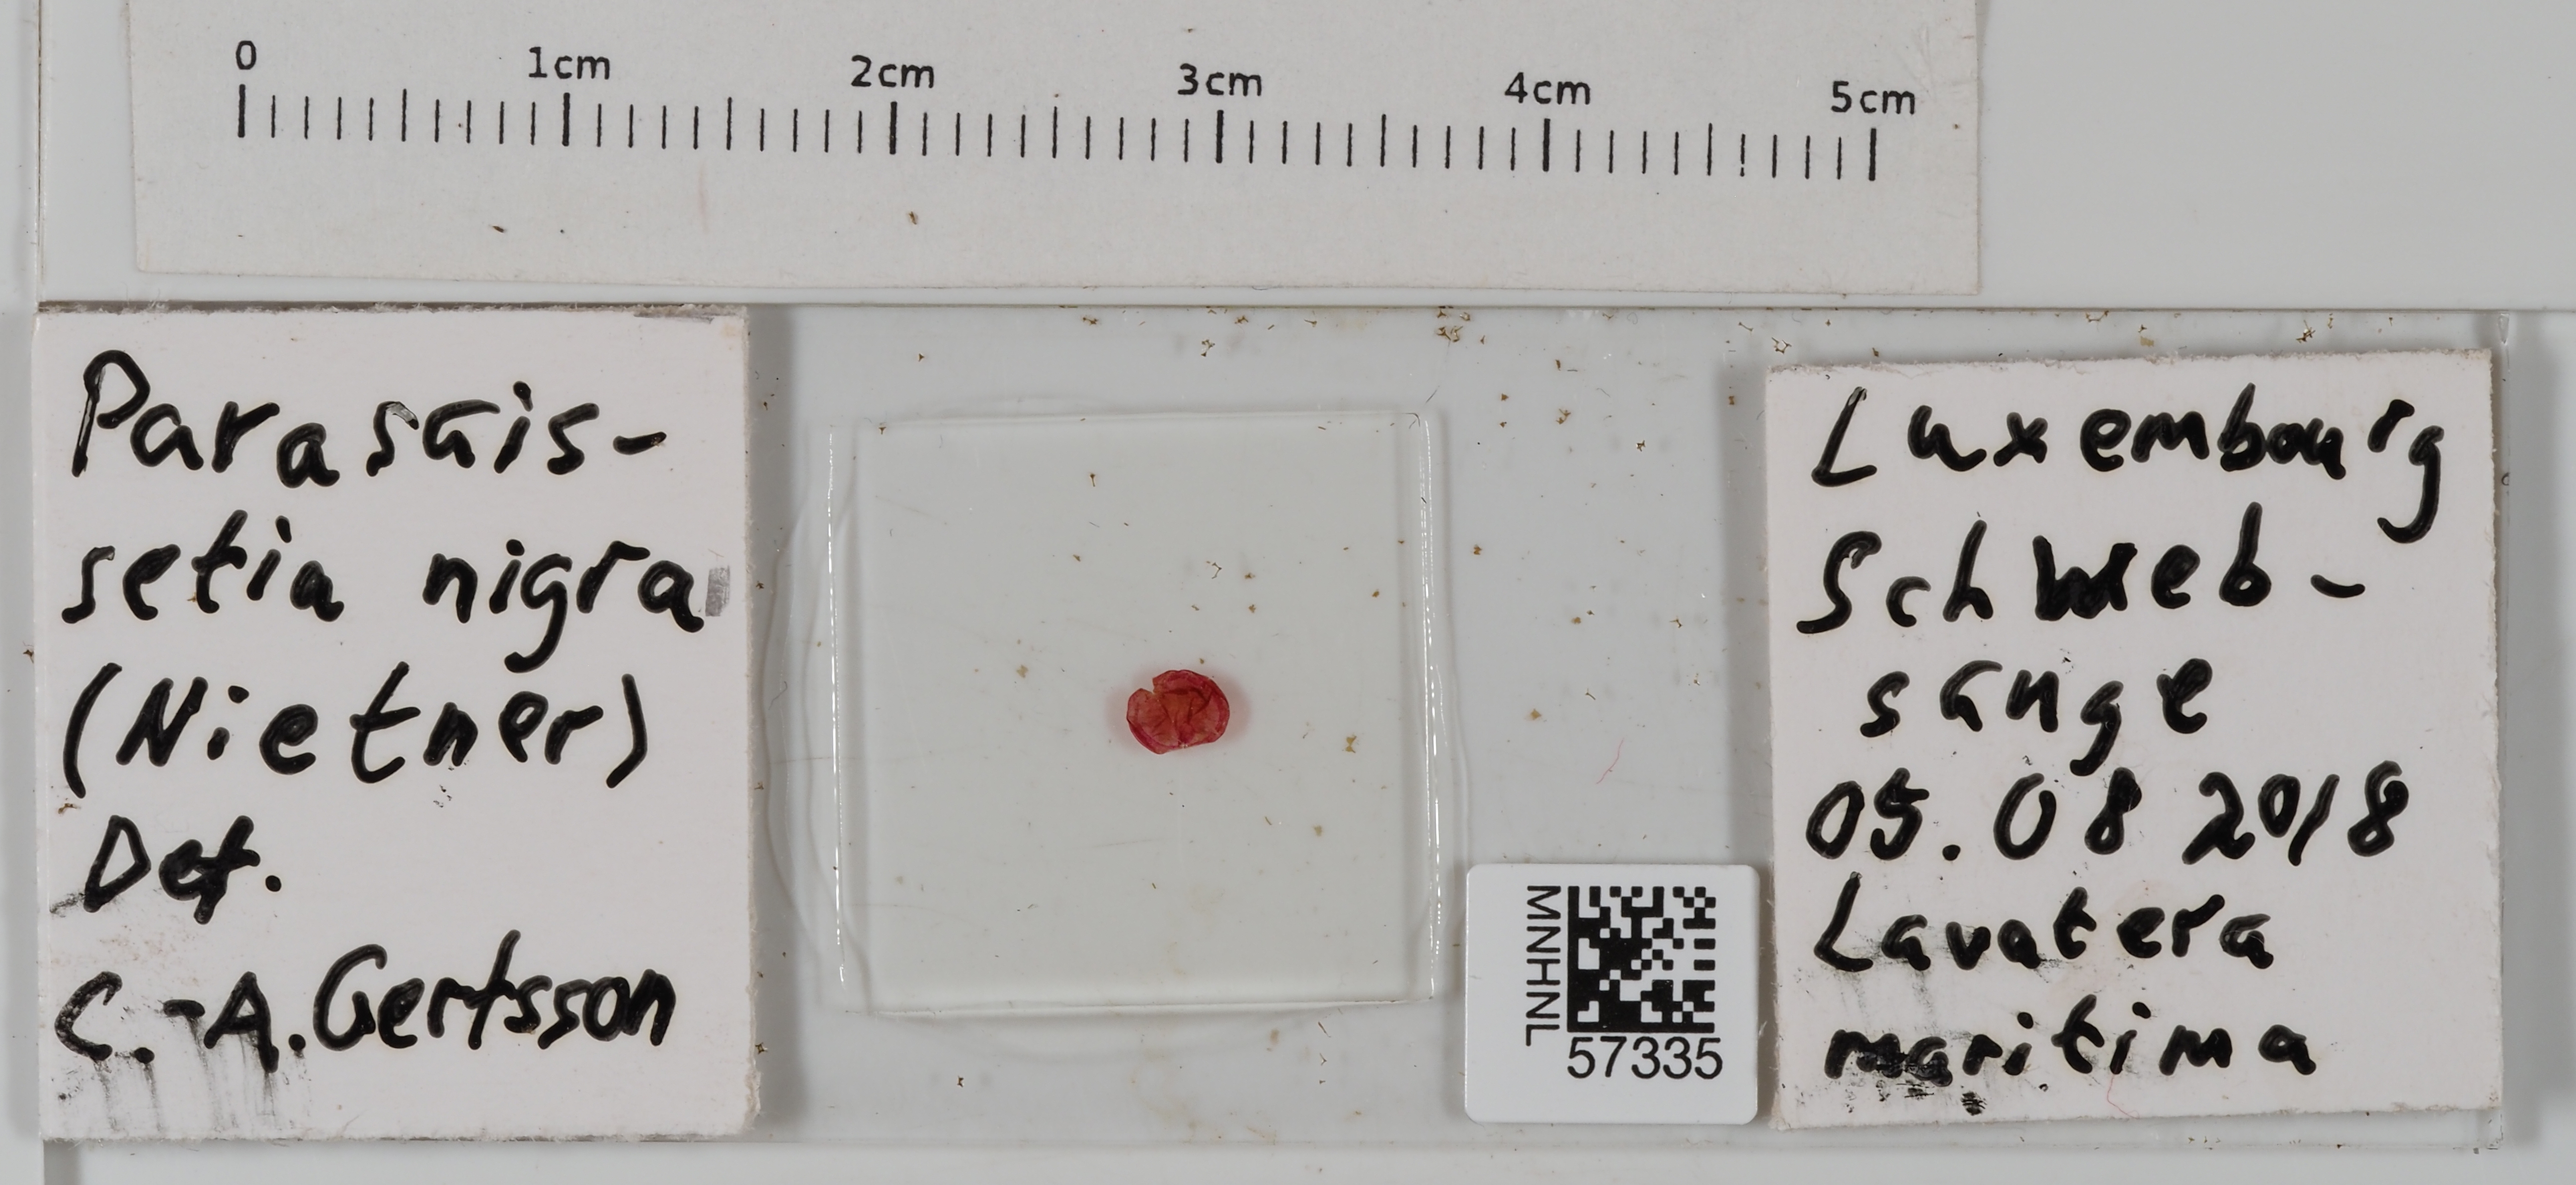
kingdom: Animalia
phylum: Arthropoda
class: Insecta
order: Hemiptera
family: Coccidae
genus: Parasaissetia
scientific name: Parasaissetia nigra
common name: Black scale
